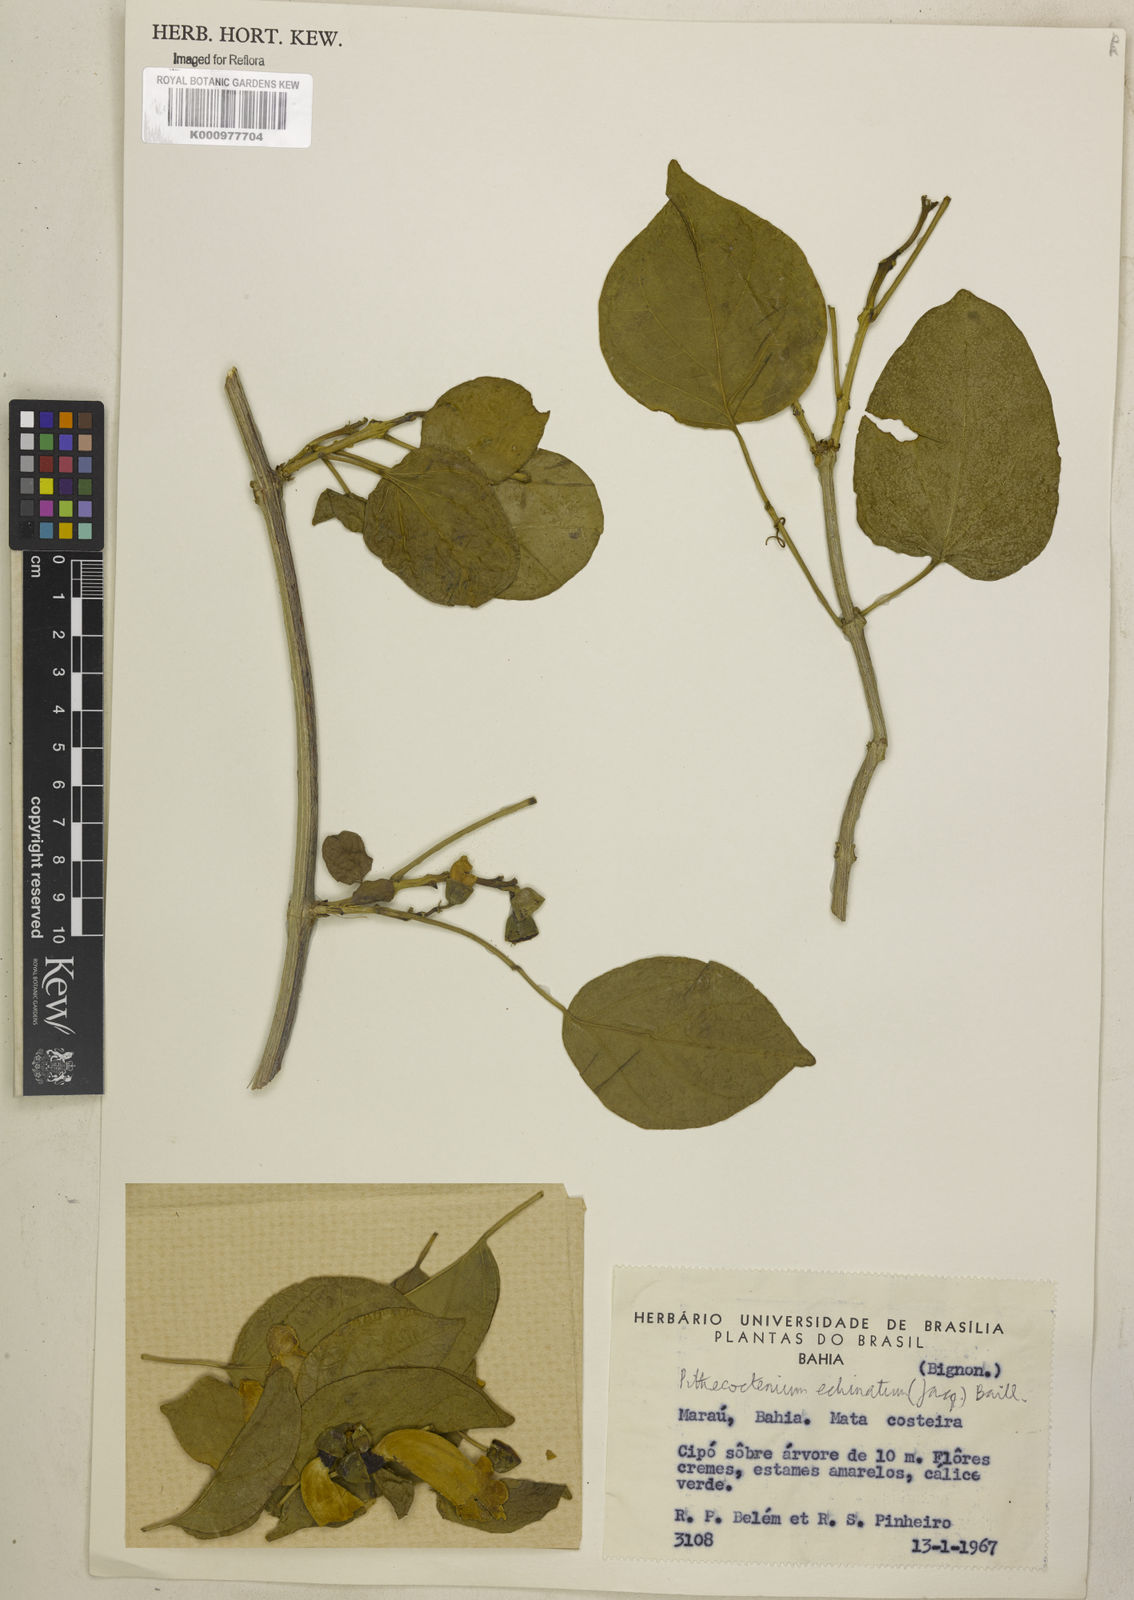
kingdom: Plantae
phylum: Tracheophyta
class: Magnoliopsida
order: Lamiales
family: Bignoniaceae
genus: Amphilophium
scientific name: Amphilophium crucigerum
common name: Monkey comb
